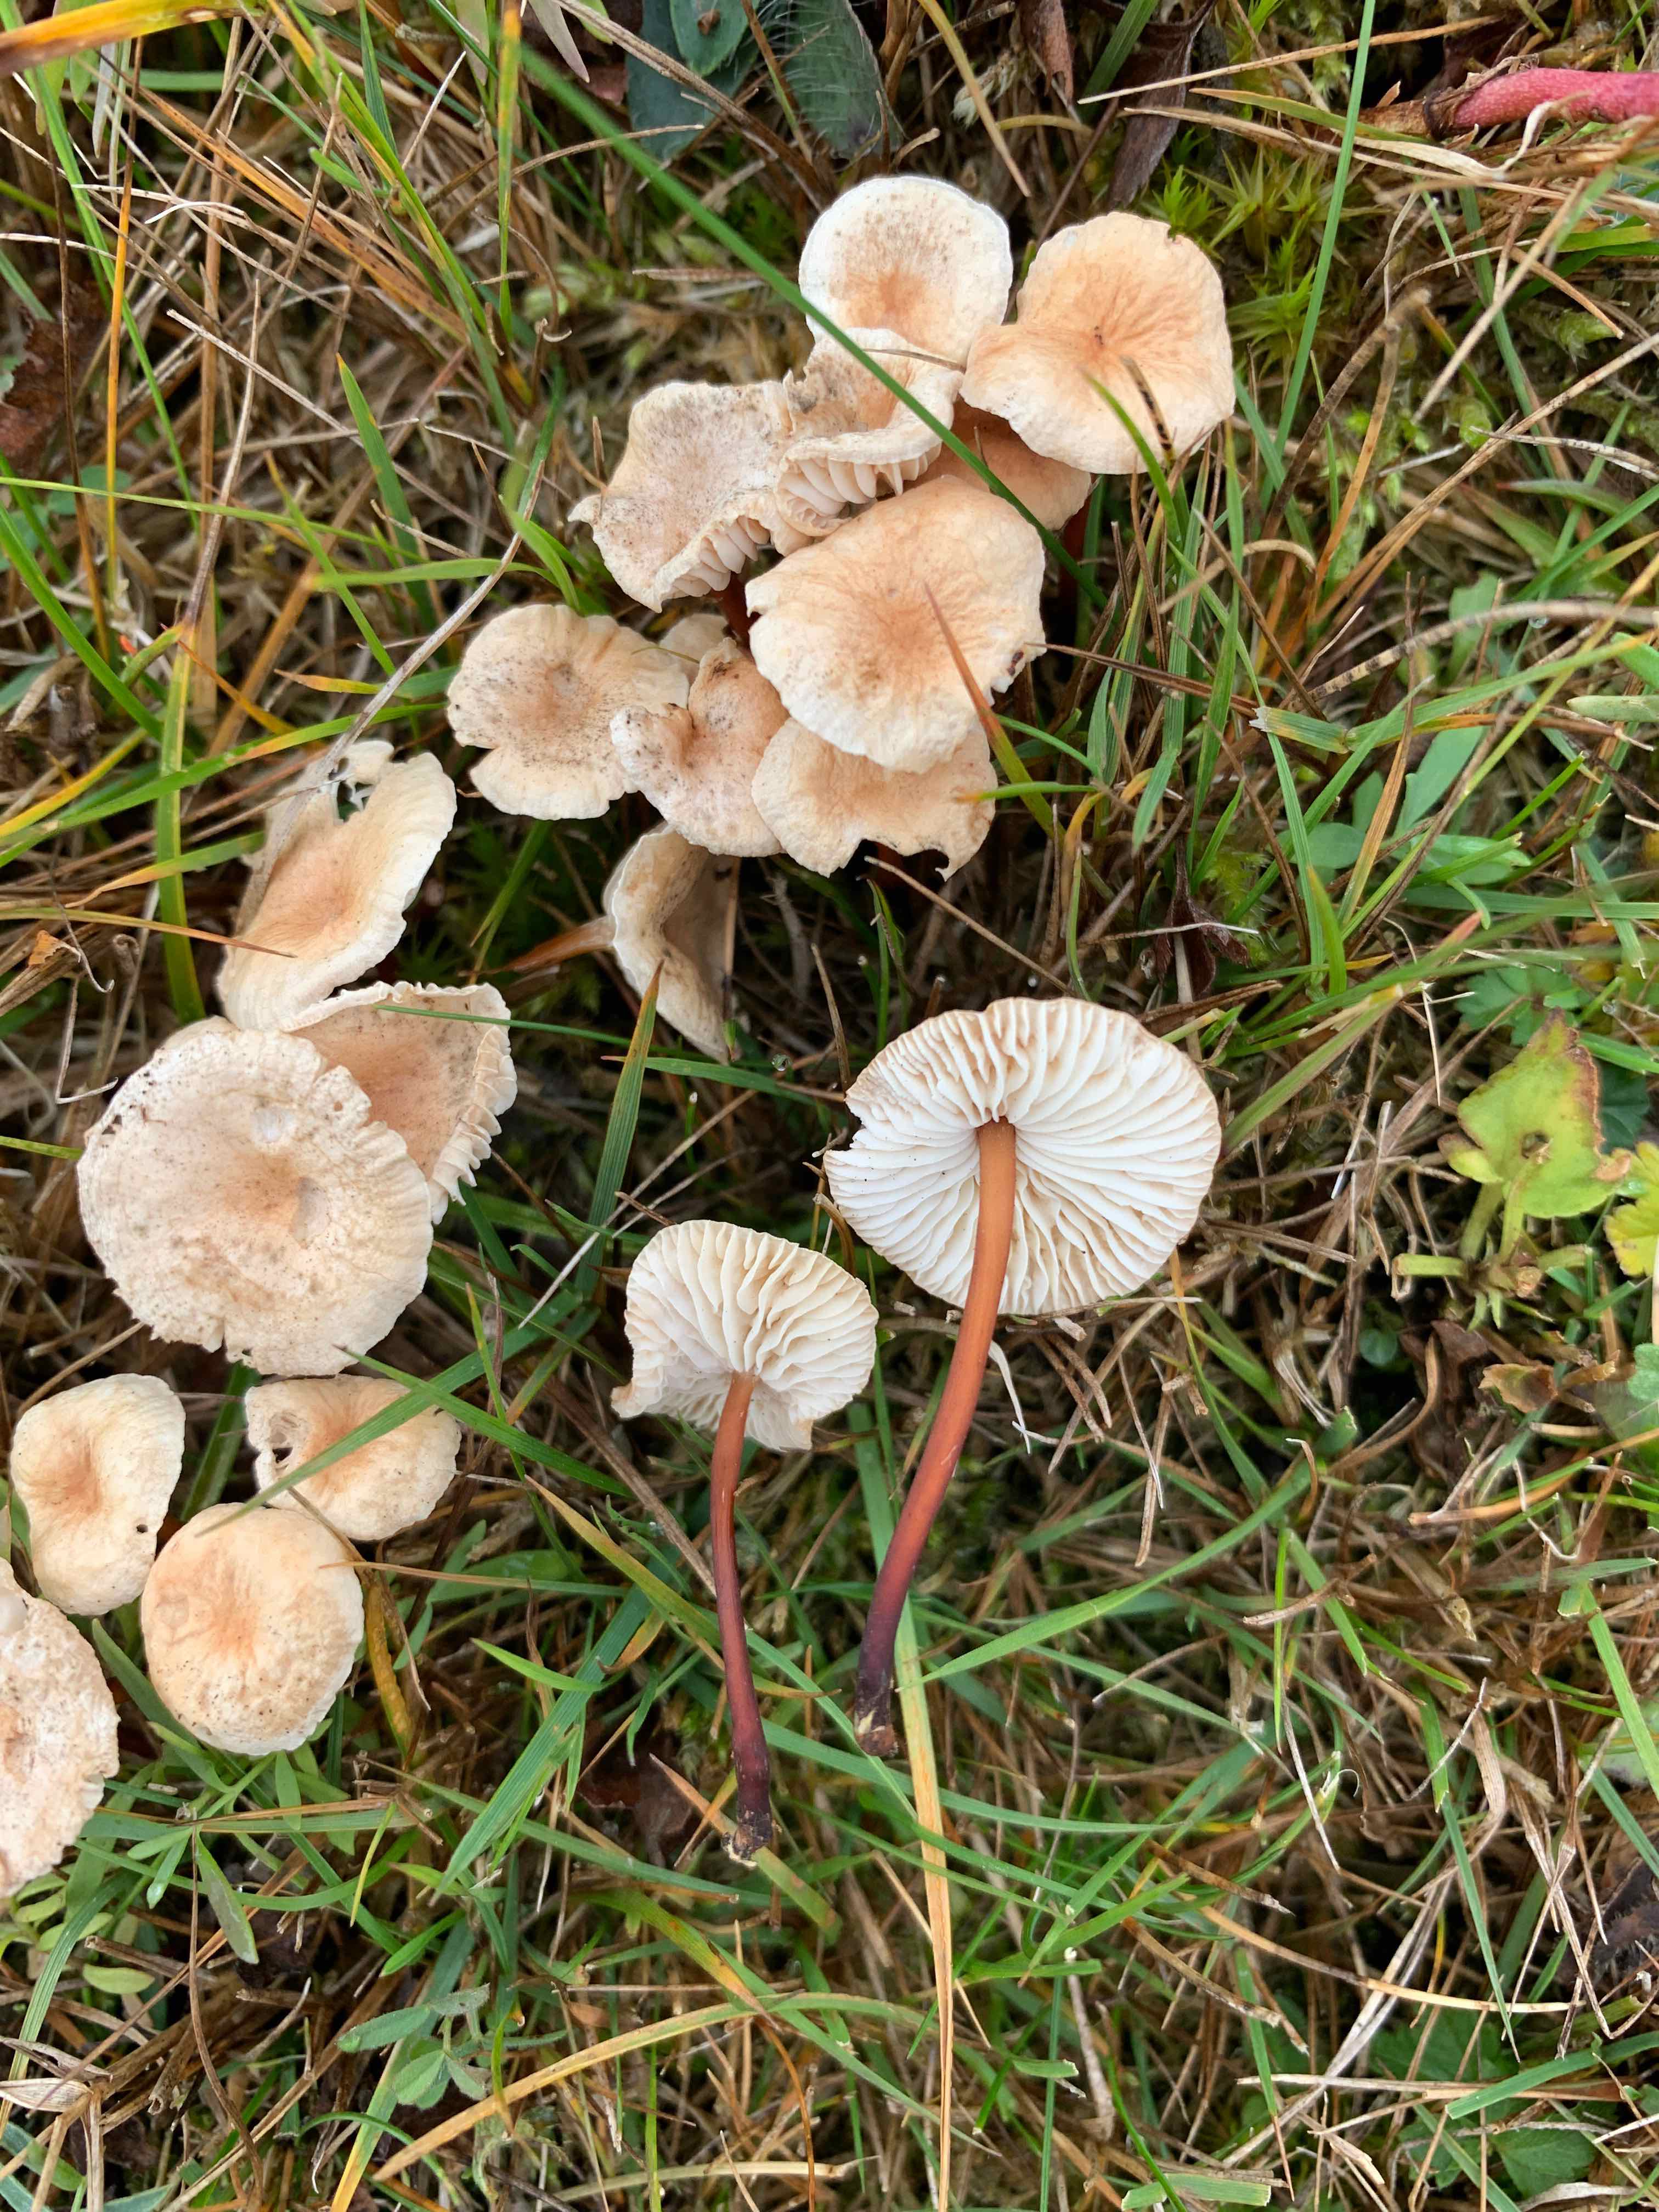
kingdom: Fungi
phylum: Basidiomycota
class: Agaricomycetes
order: Agaricales
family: Omphalotaceae
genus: Mycetinis
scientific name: Mycetinis scorodonius
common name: lille løghat
